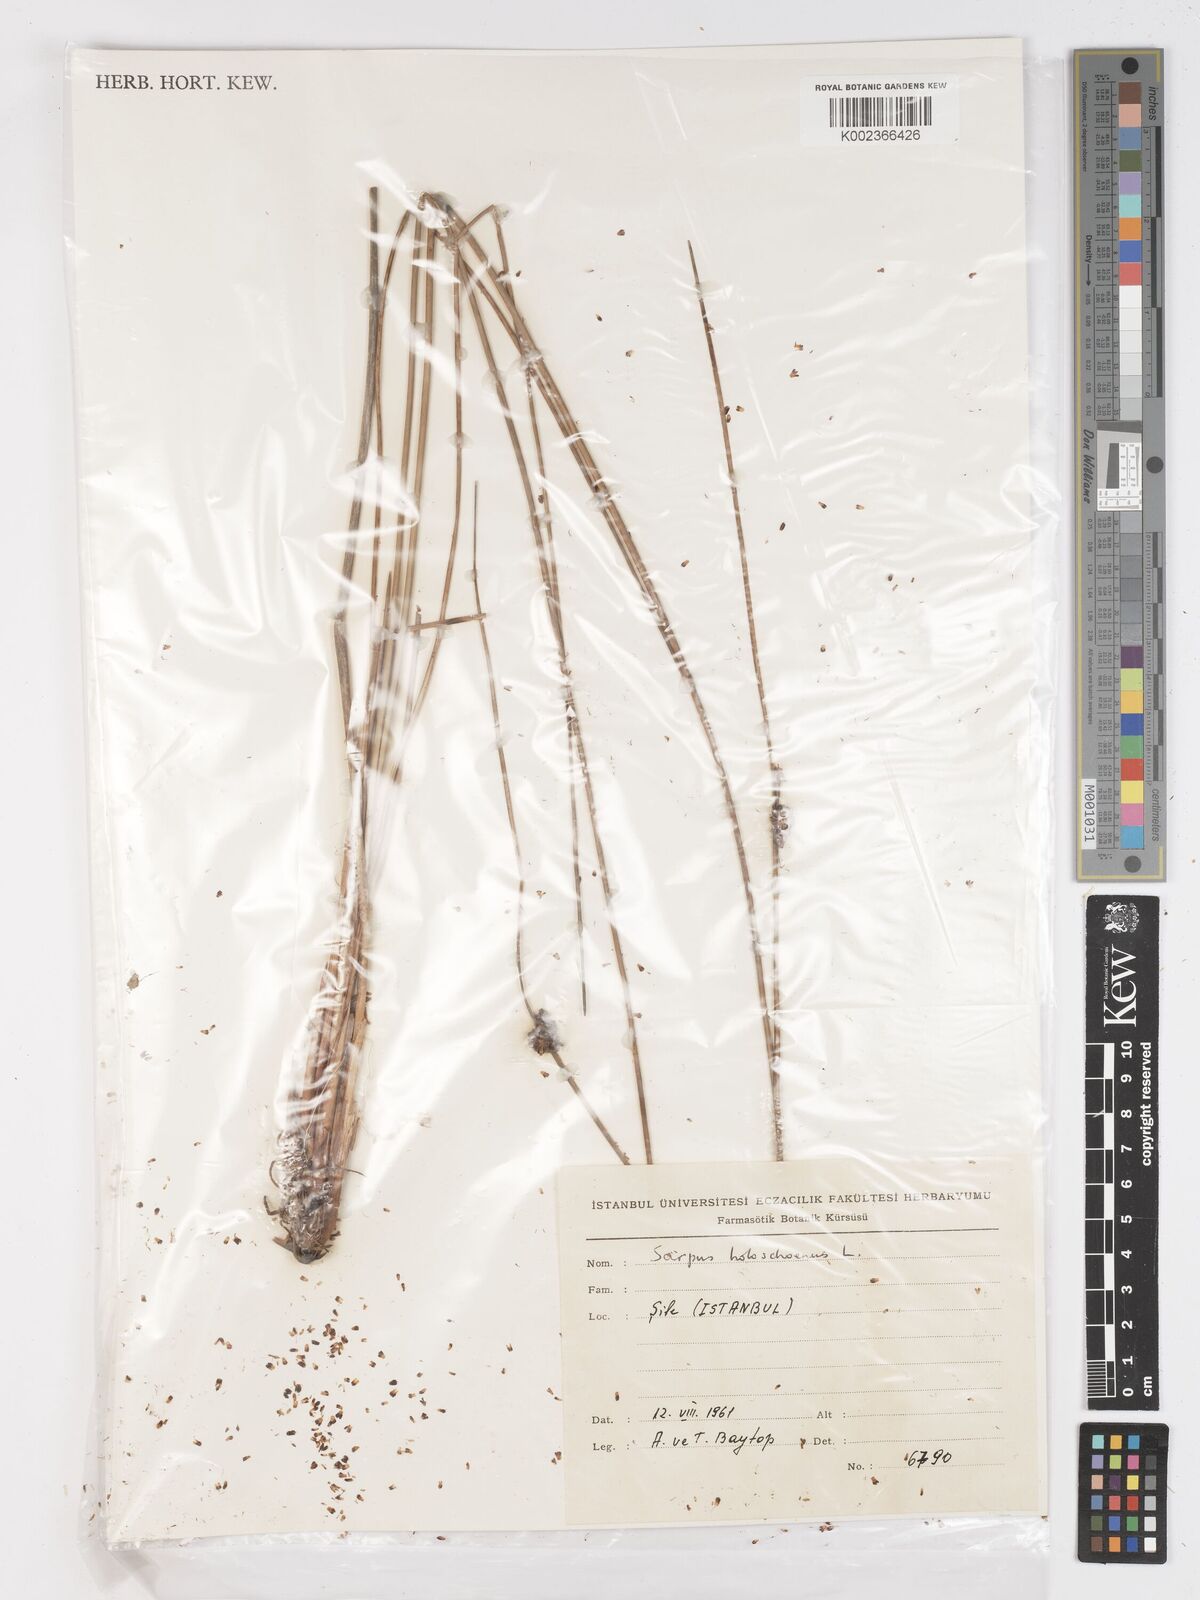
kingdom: Plantae
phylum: Tracheophyta
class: Liliopsida
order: Poales
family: Cyperaceae
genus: Scirpoides
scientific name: Scirpoides holoschoenus
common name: Round-headed club-rush
